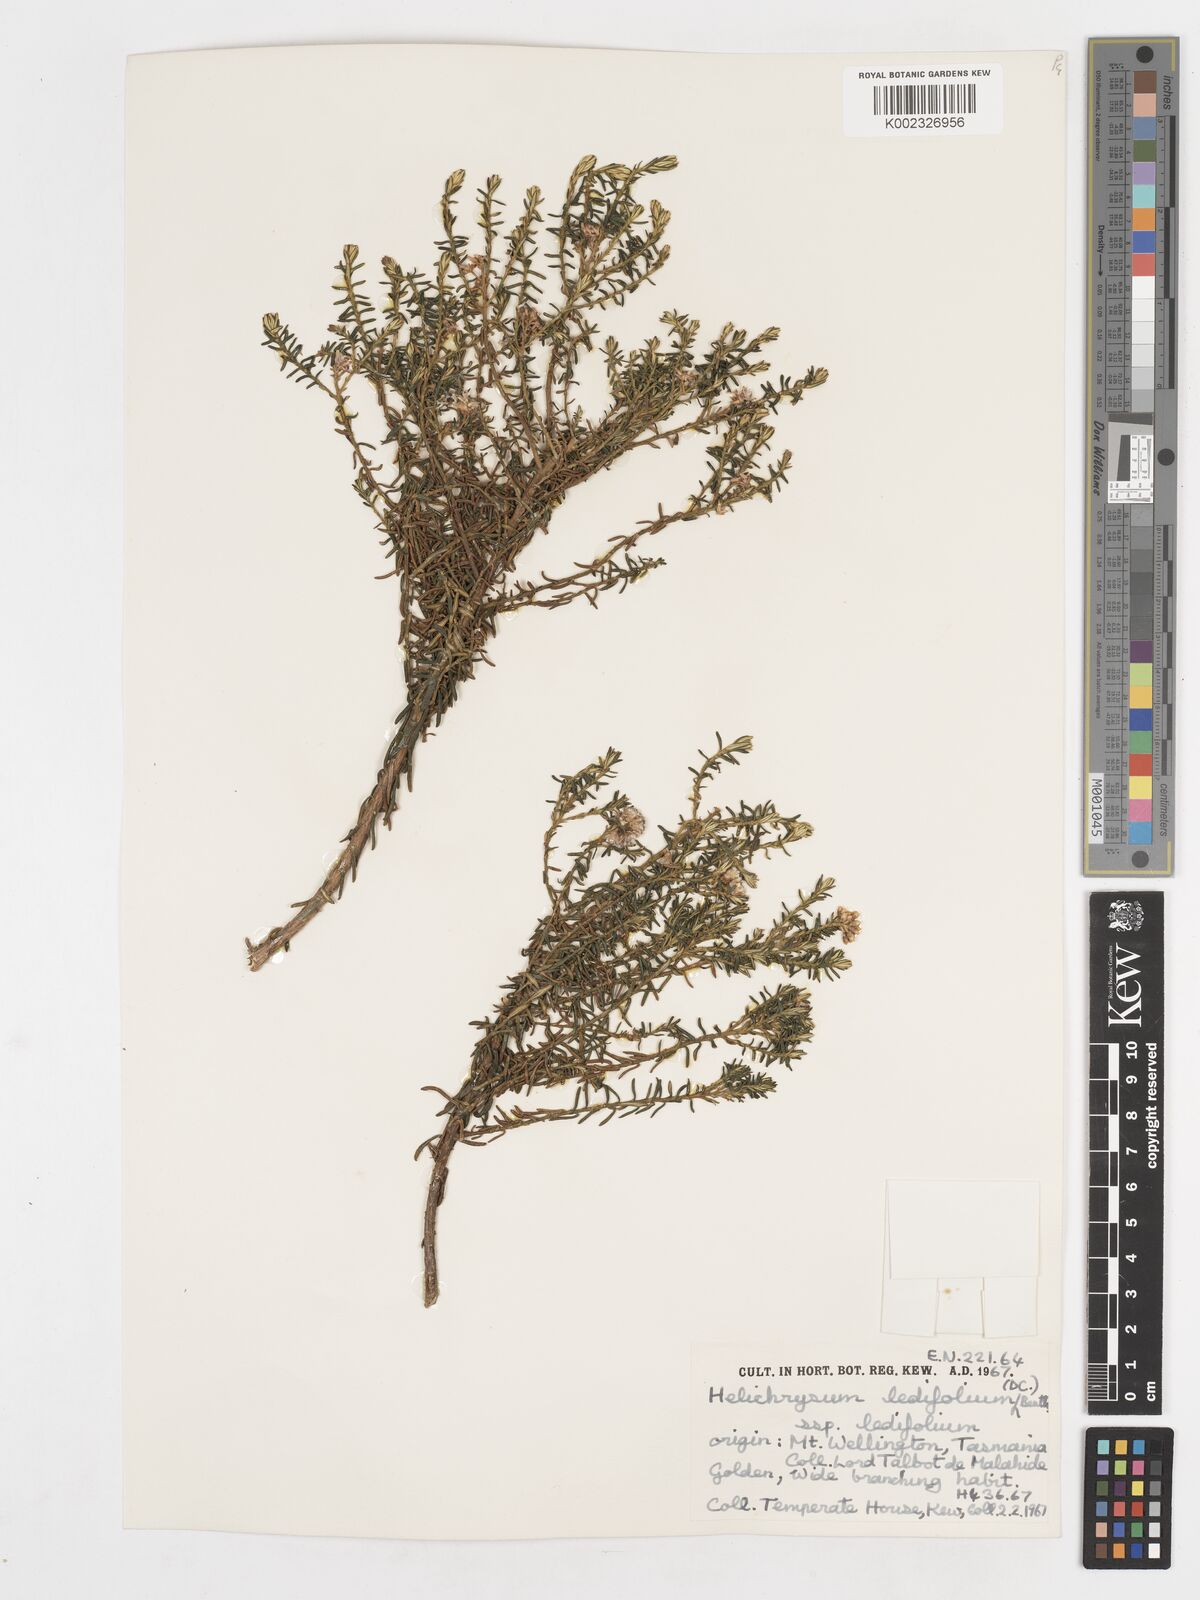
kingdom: Plantae
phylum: Tracheophyta
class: Magnoliopsida
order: Asterales
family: Asteraceae
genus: Ozothamnus
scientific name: Ozothamnus ledifolius
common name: Kerosene-weed
